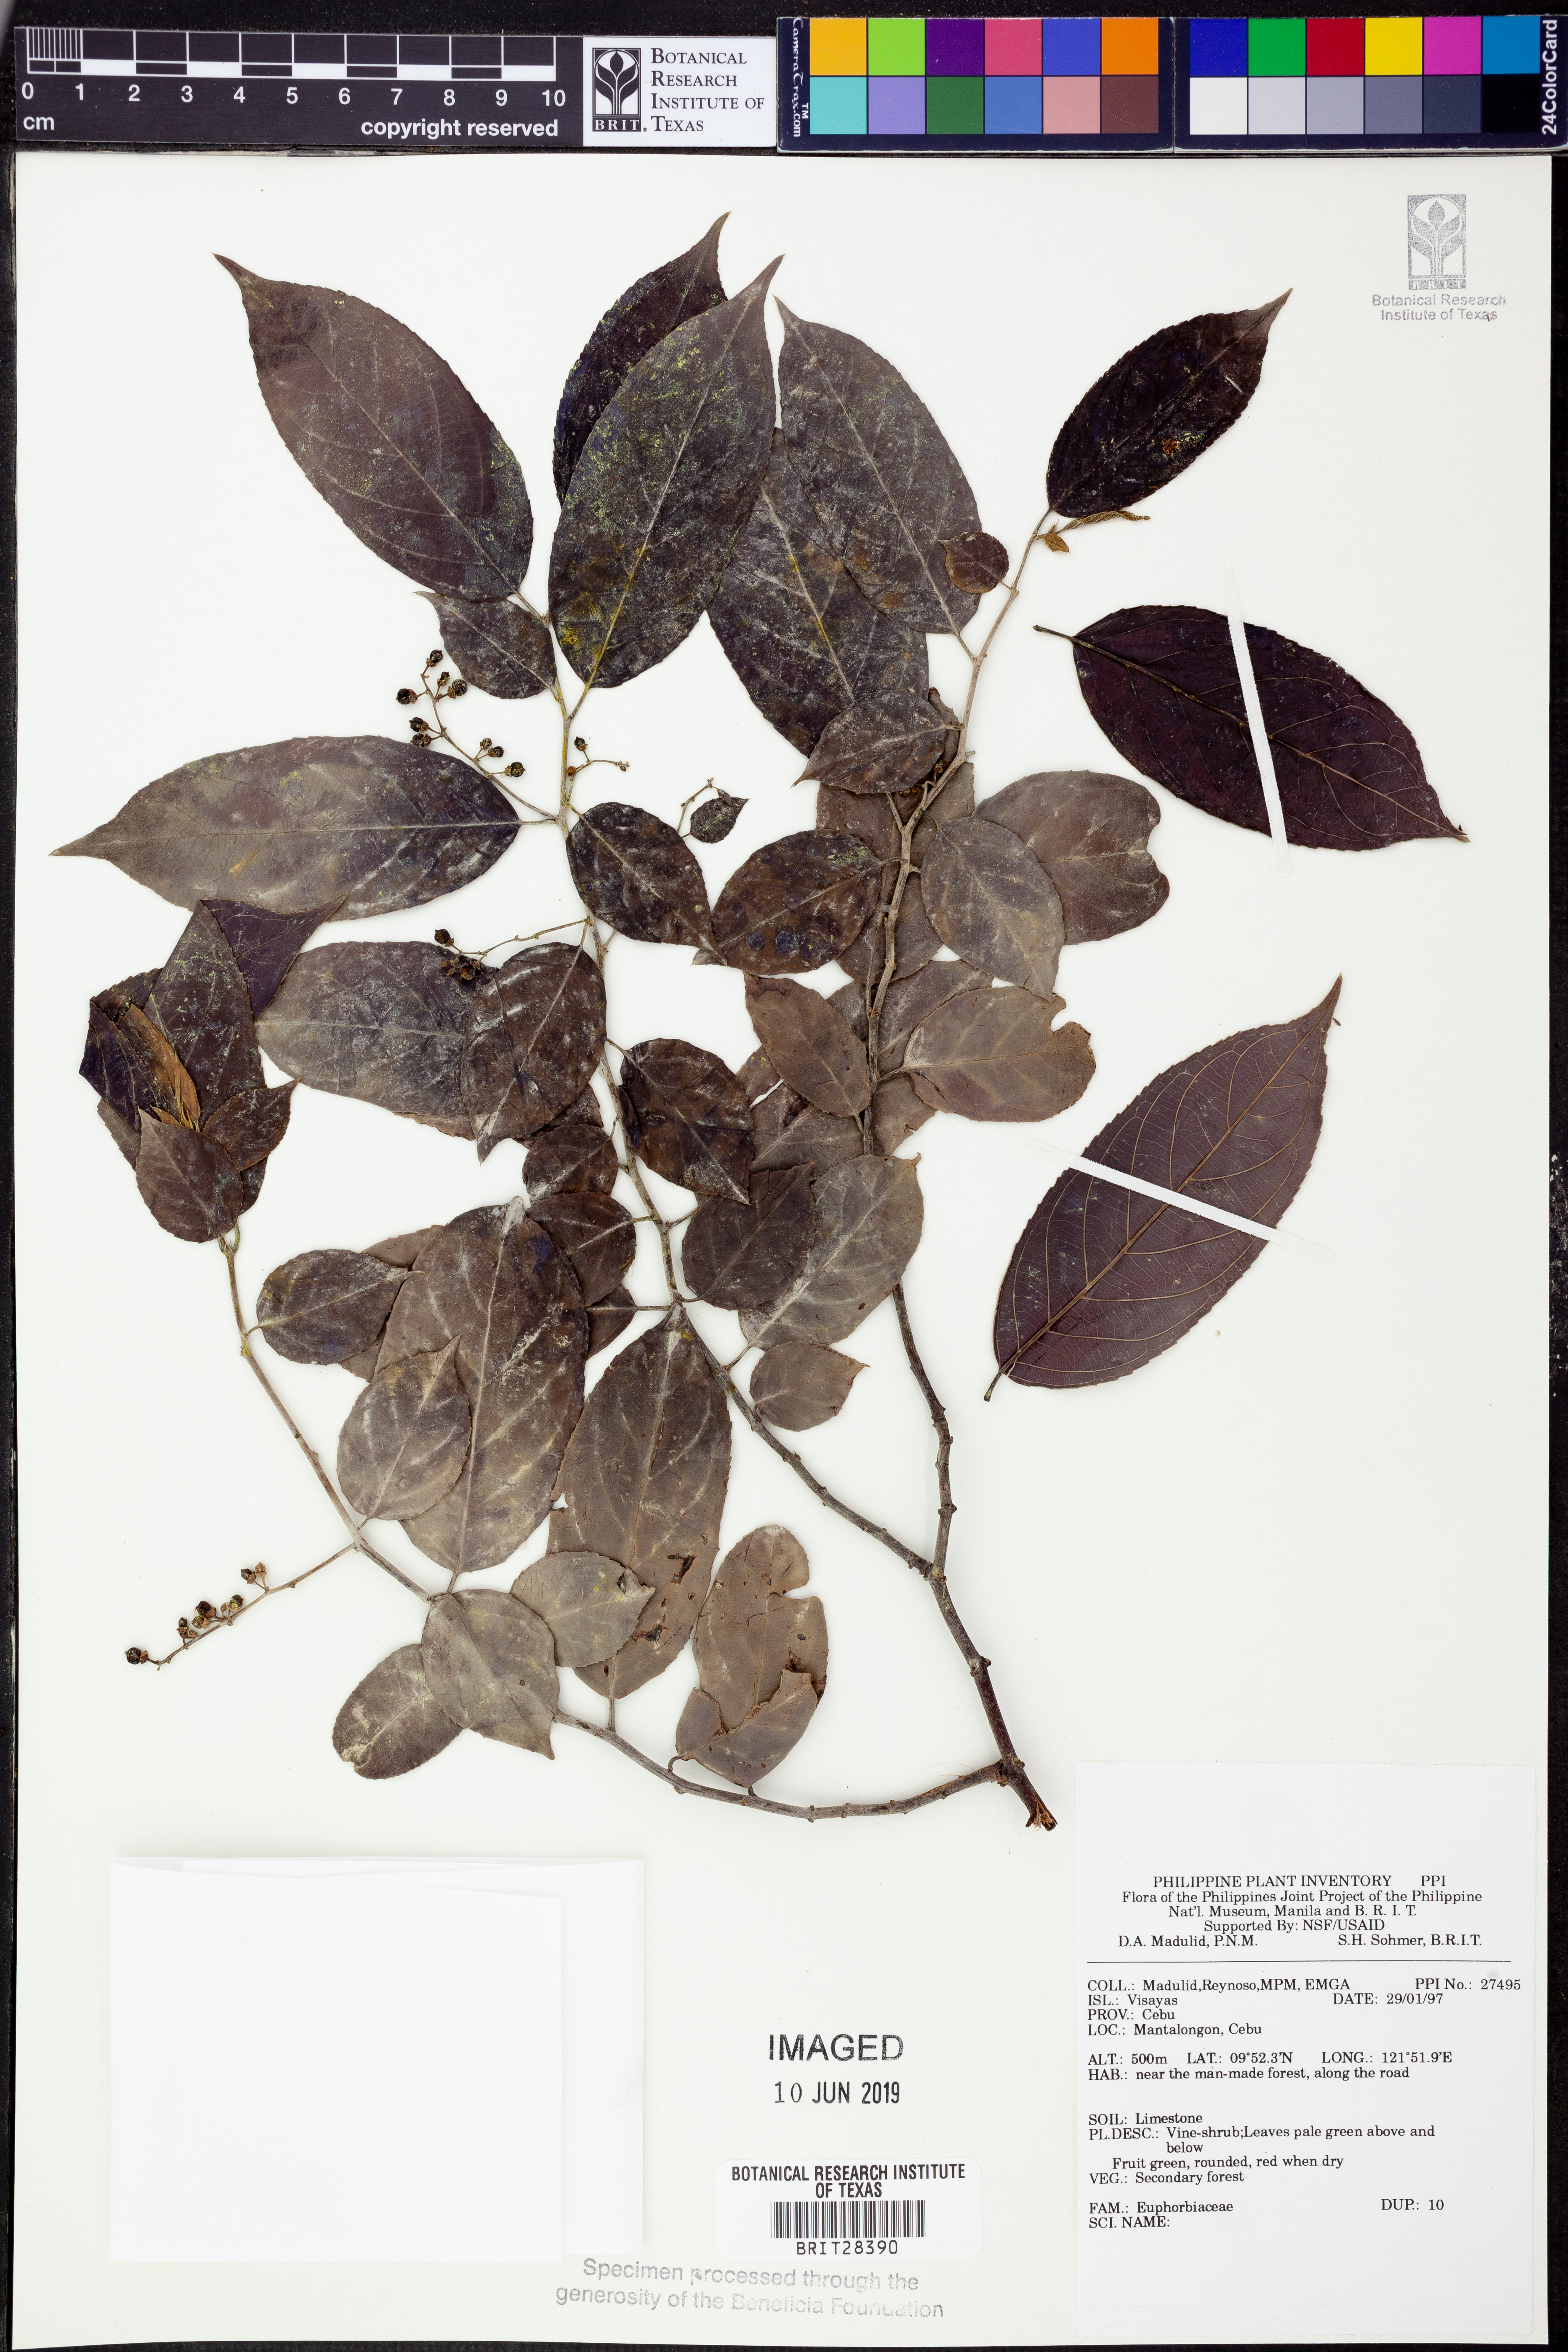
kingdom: Plantae
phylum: Tracheophyta
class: Magnoliopsida
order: Malpighiales
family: Euphorbiaceae
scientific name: Euphorbiaceae
